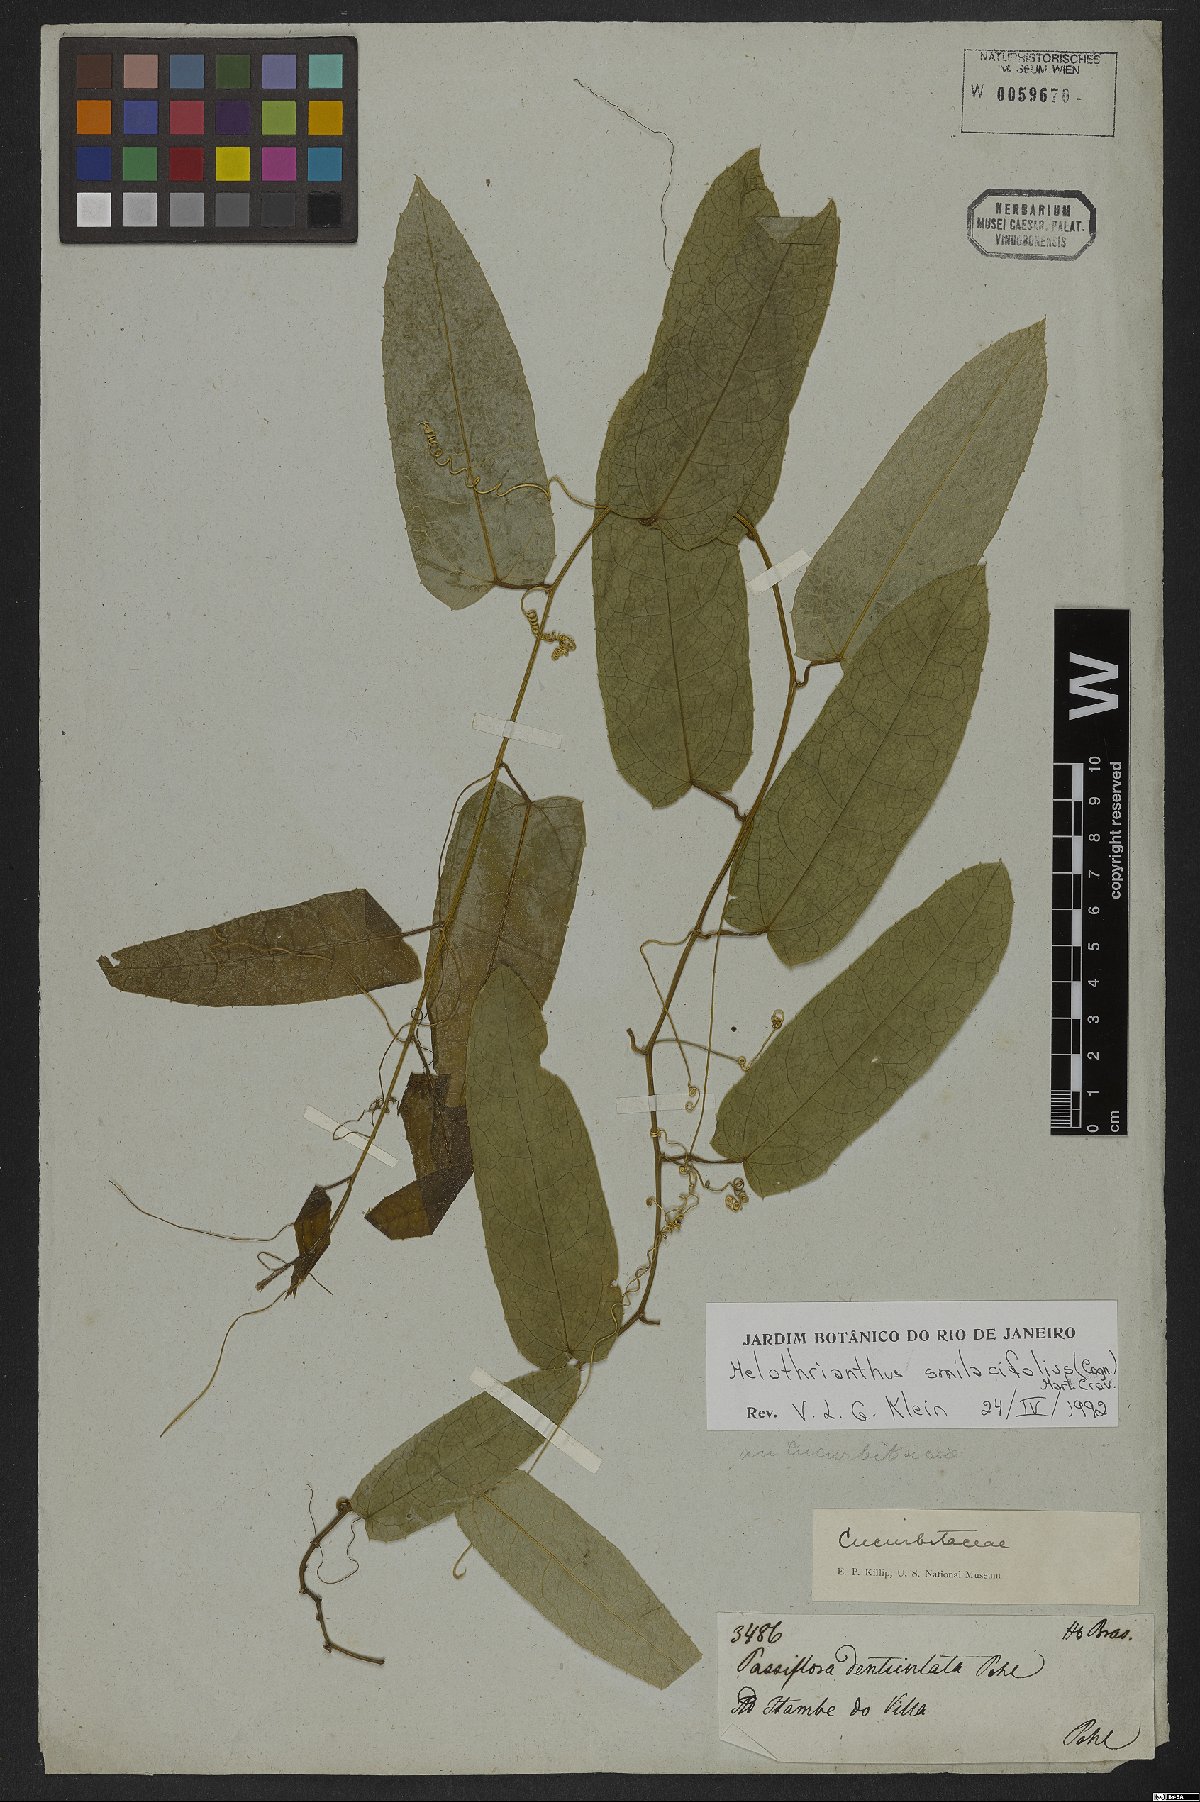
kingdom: Plantae
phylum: Tracheophyta
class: Magnoliopsida
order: Cucurbitales
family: Cucurbitaceae
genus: Apodanthera
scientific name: Apodanthera smilacifolia
